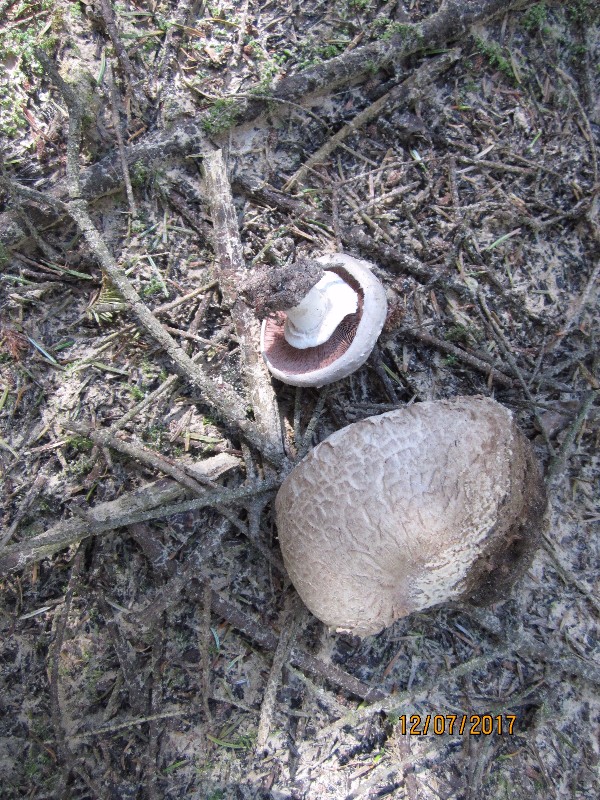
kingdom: Fungi
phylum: Basidiomycota
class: Agaricomycetes
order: Agaricales
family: Agaricaceae
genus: Agaricus
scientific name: Agaricus subfloccosus
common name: randskællet champignon
